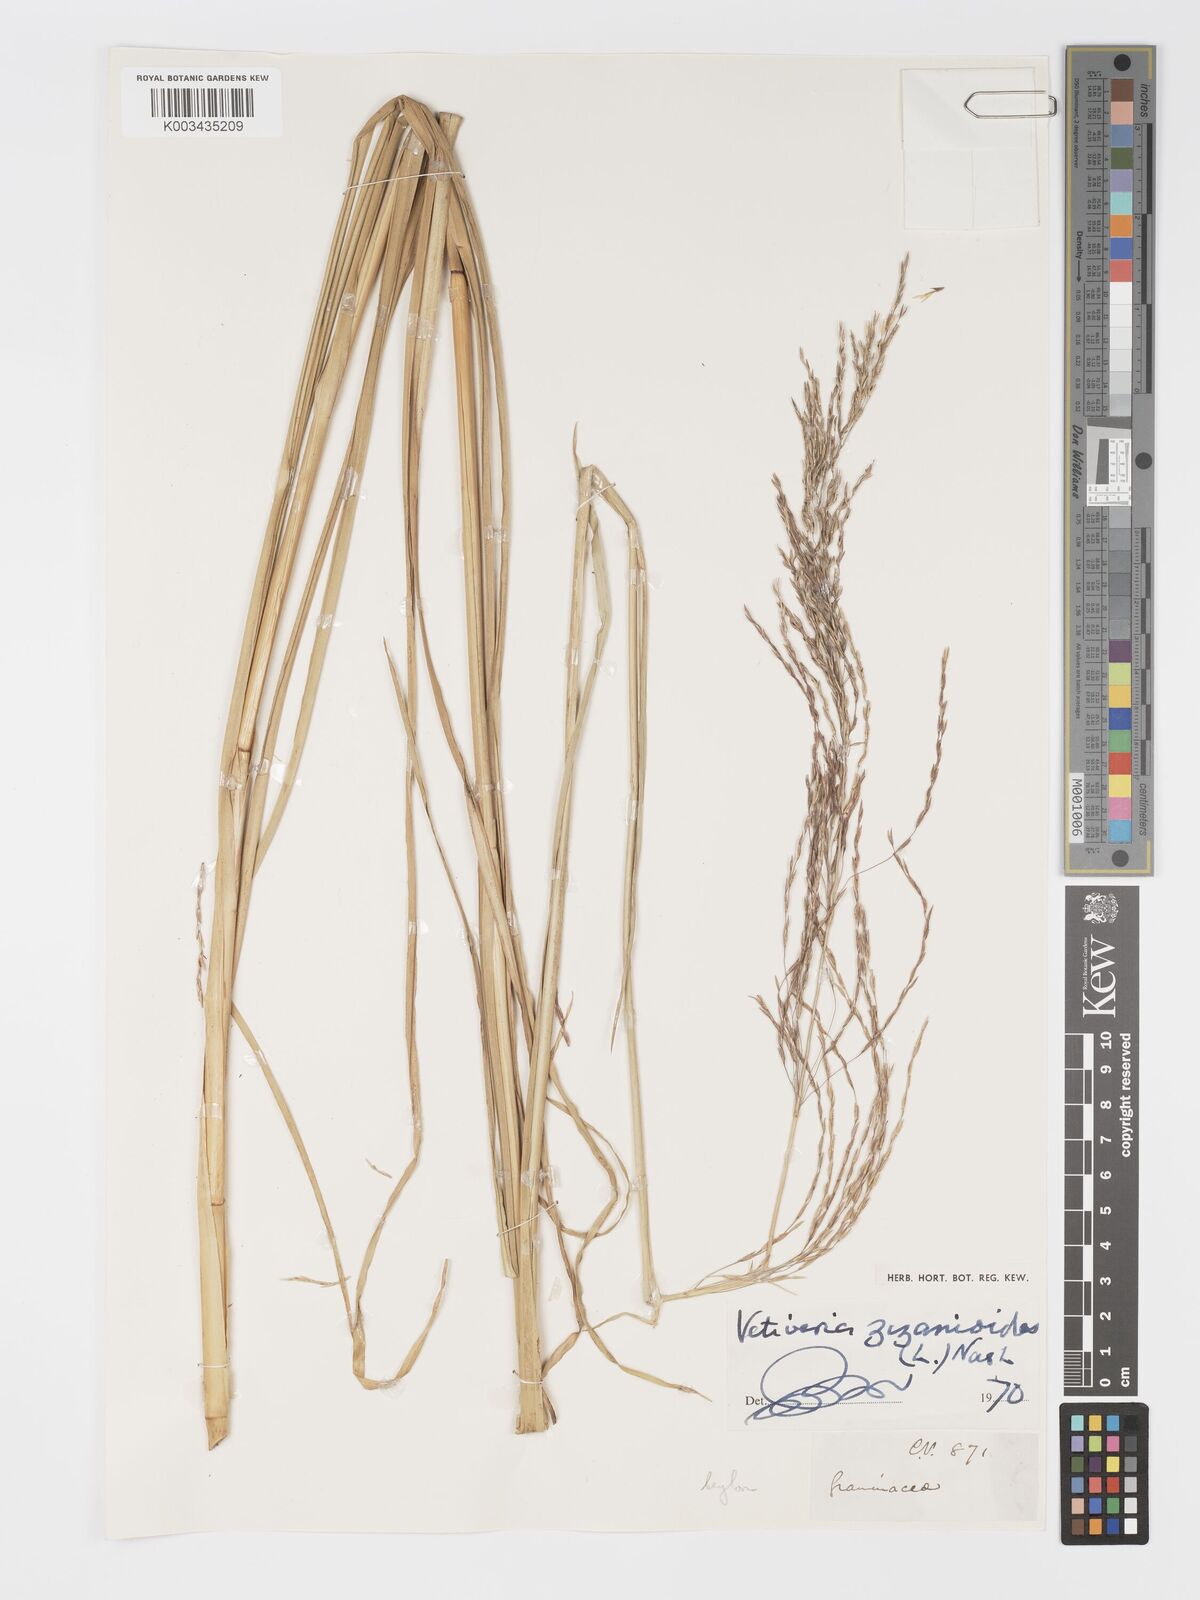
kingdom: Plantae
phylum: Tracheophyta
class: Liliopsida
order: Poales
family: Poaceae
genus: Chrysopogon
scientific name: Chrysopogon zizanioides
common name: False beardgrass
